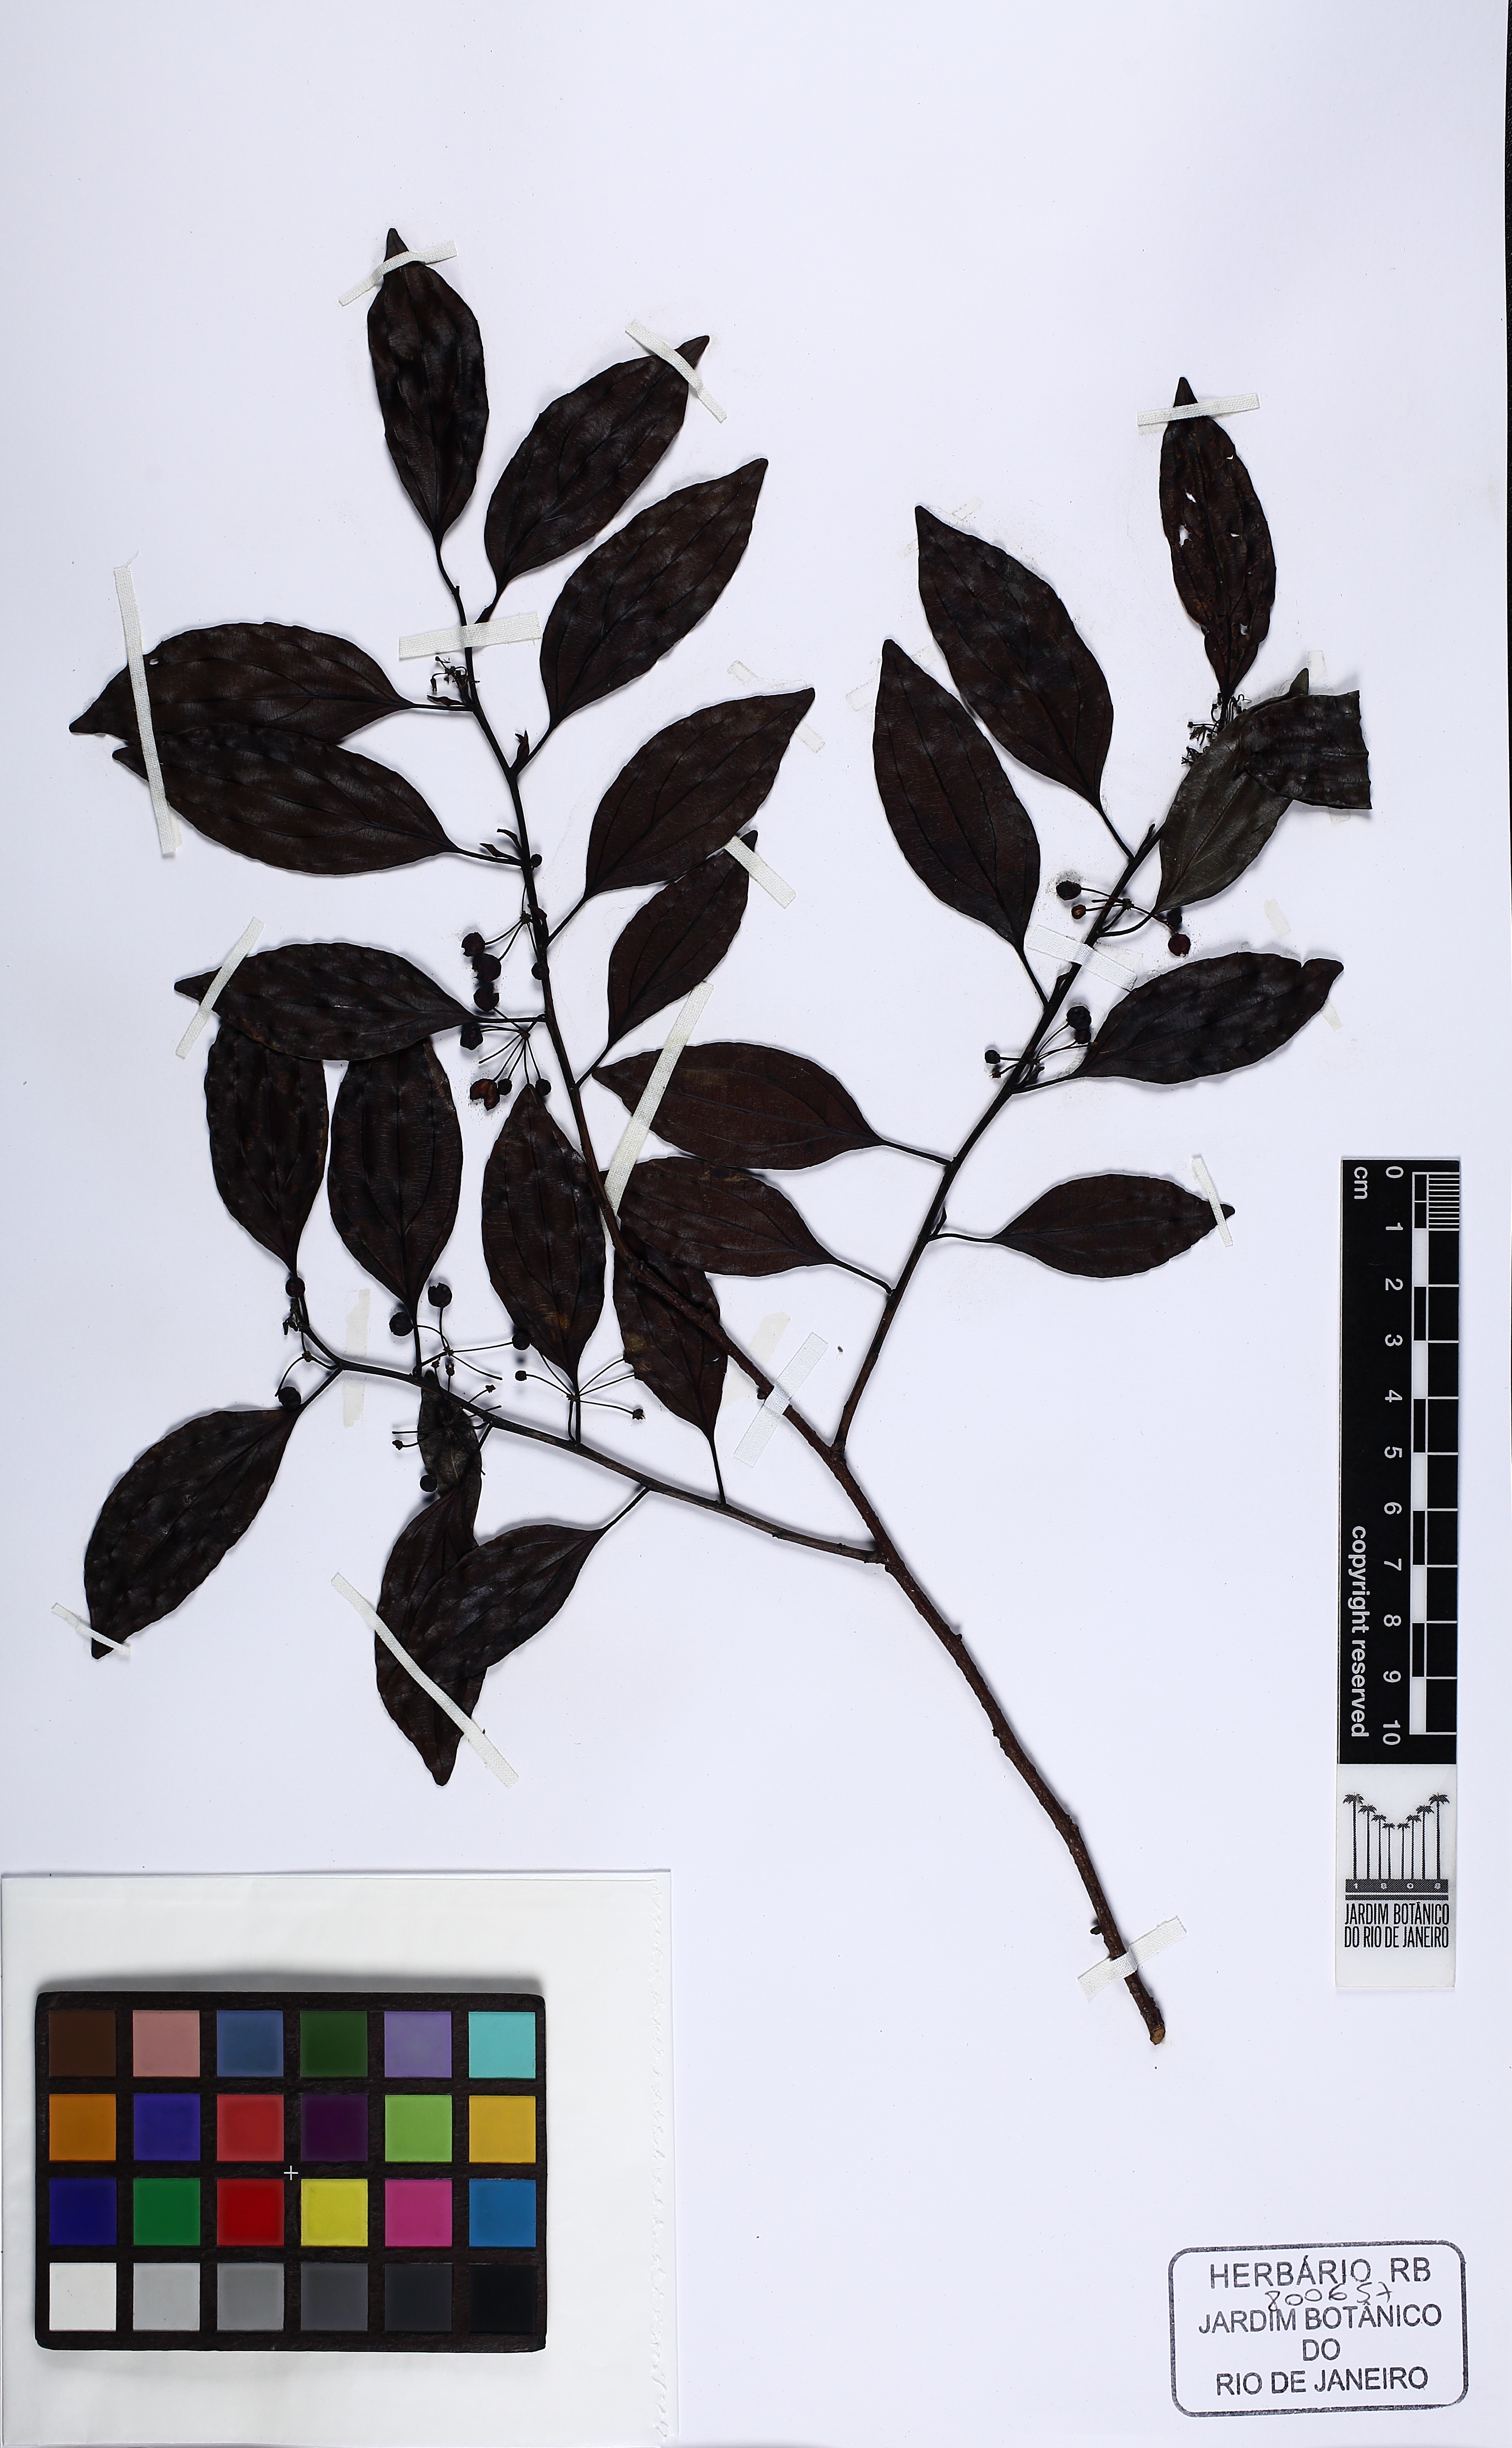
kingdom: Plantae
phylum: Tracheophyta
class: Magnoliopsida
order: Malpighiales
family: Goupiaceae
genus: Goupia
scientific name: Goupia glabra
